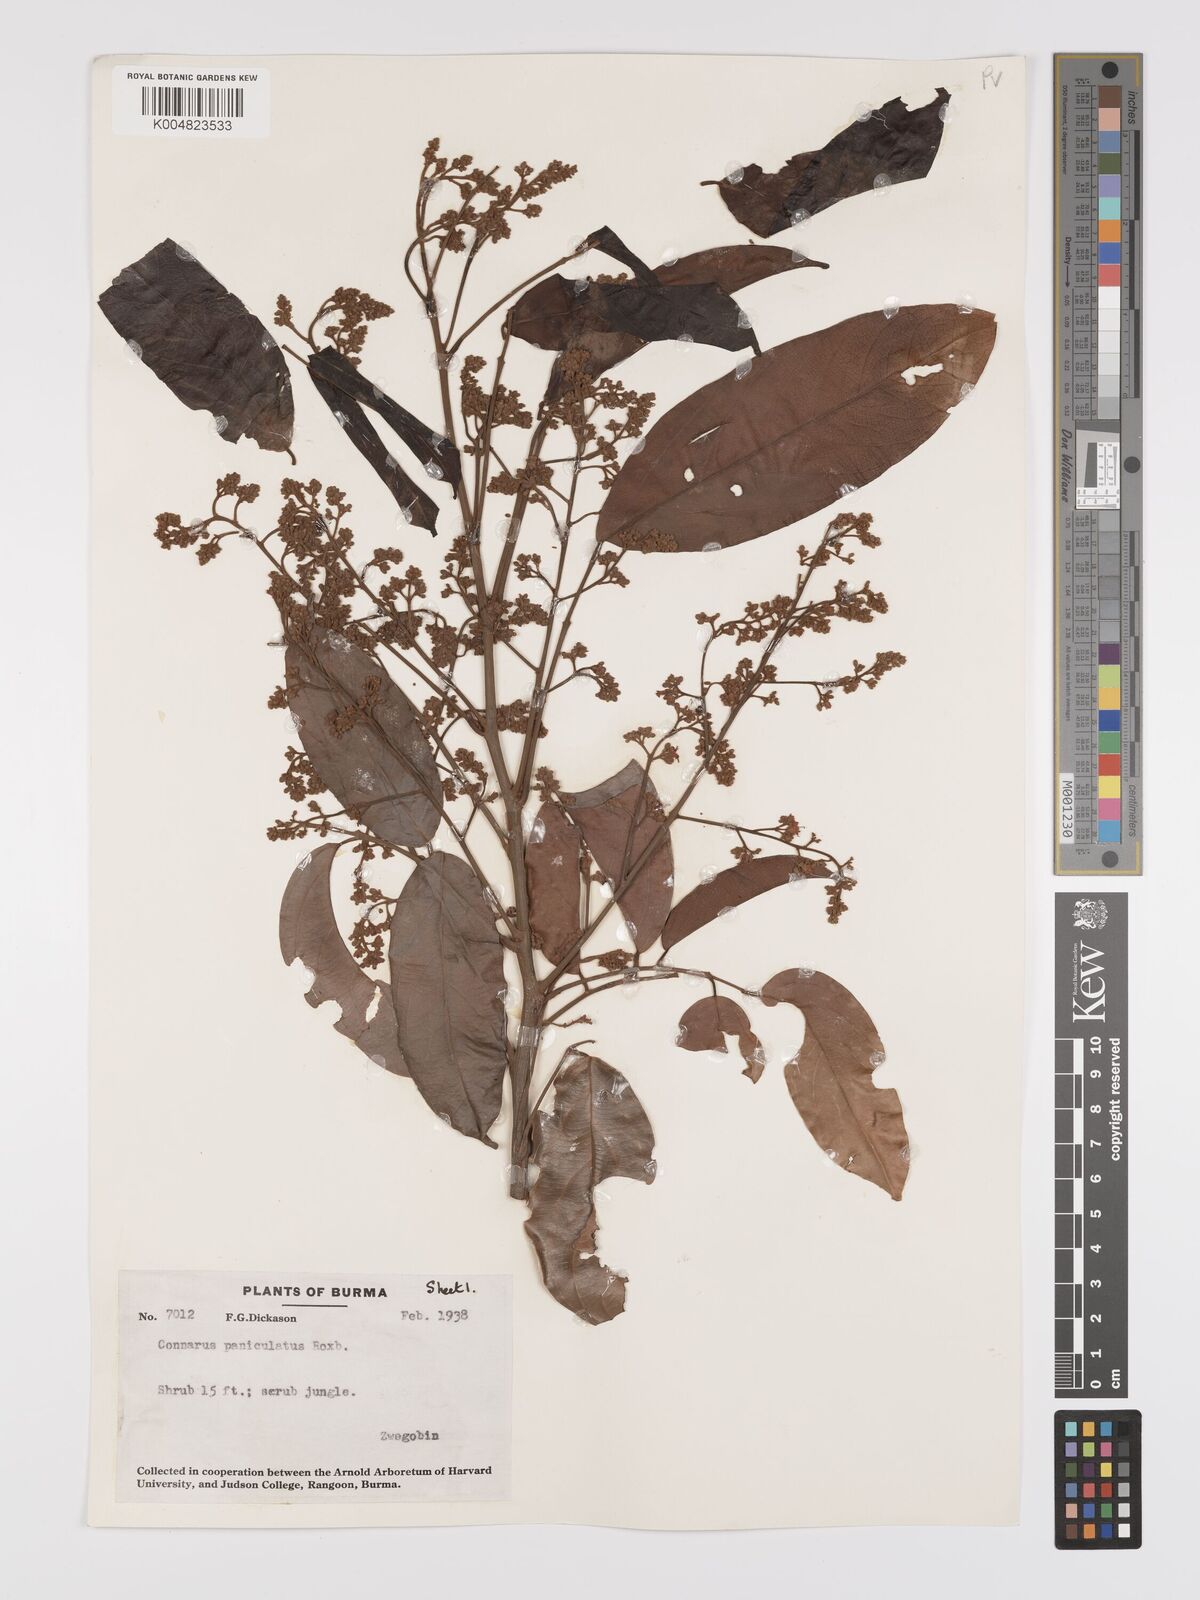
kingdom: Plantae
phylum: Tracheophyta
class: Magnoliopsida
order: Oxalidales
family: Connaraceae
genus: Connarus
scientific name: Connarus paniculatus
